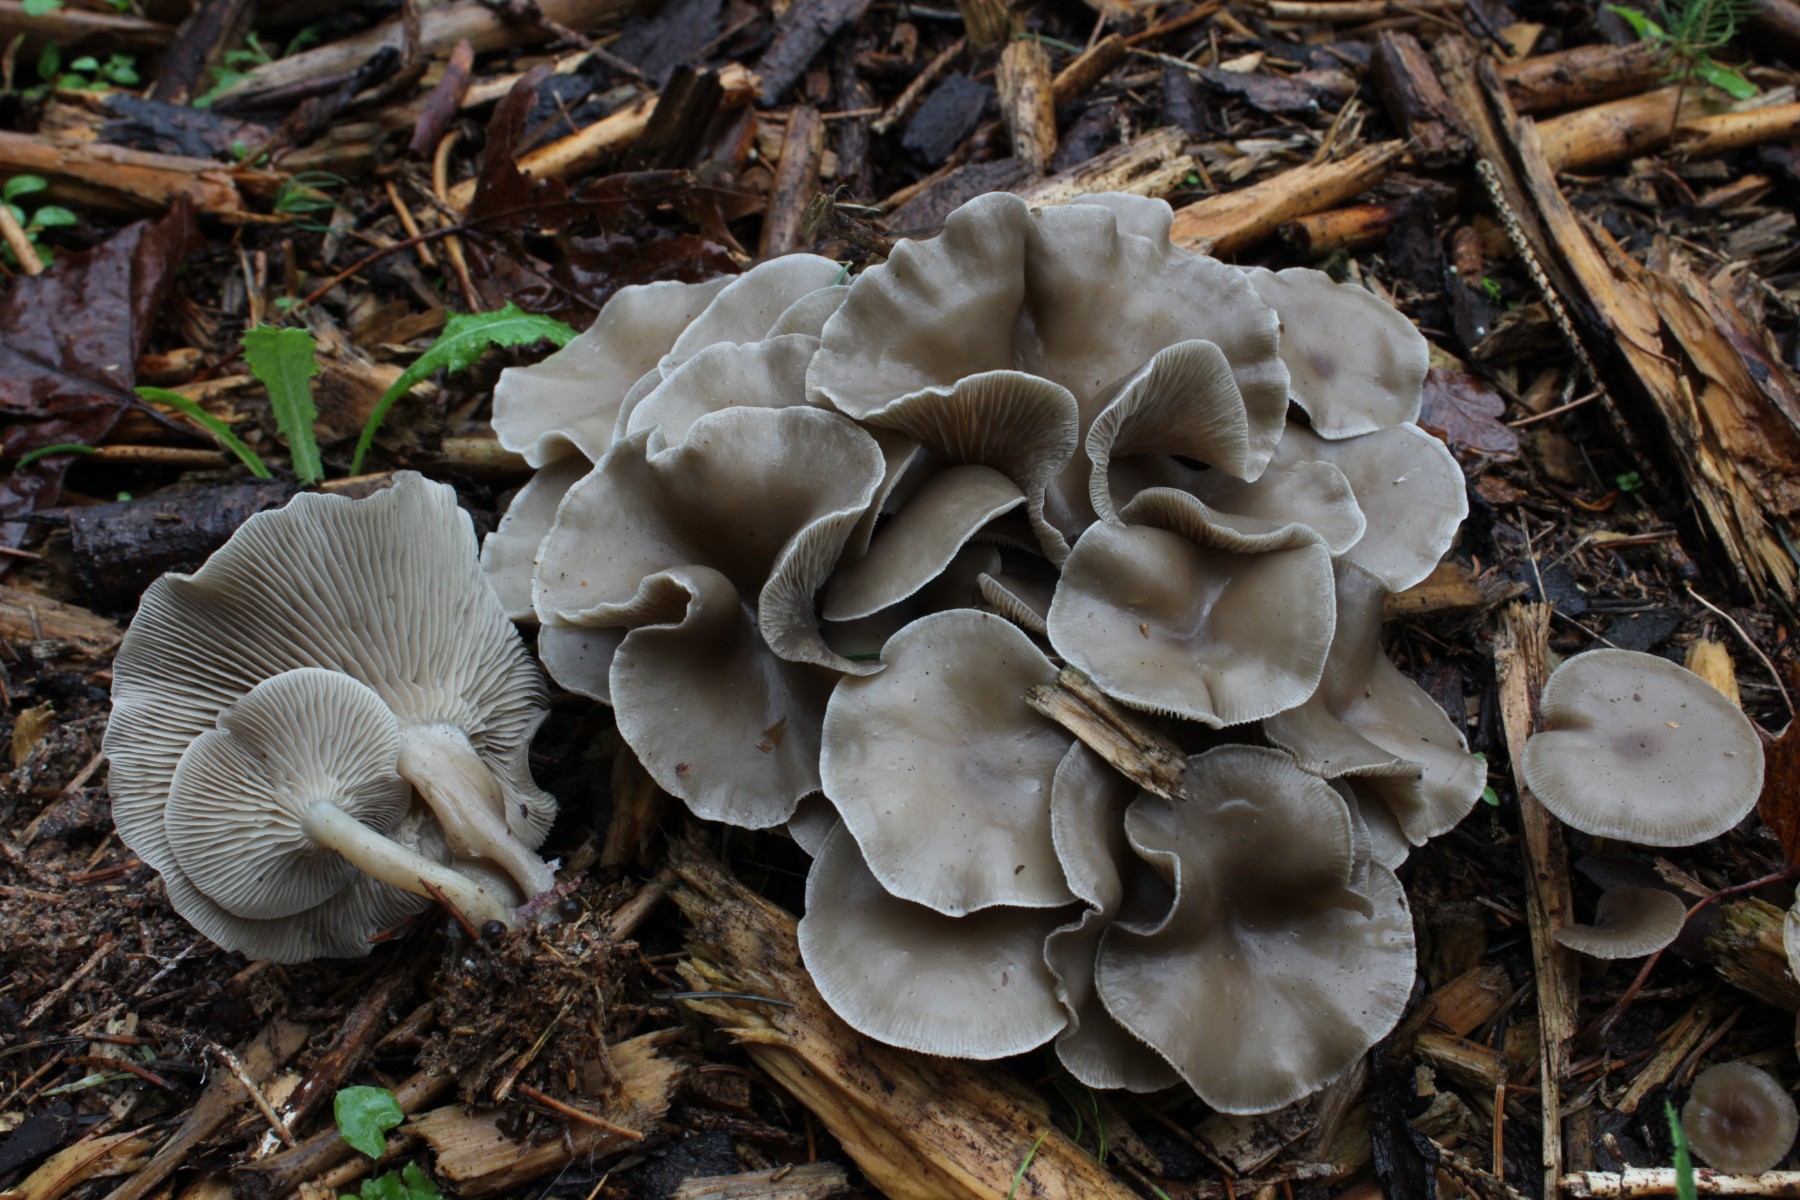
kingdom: Fungi
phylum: Basidiomycota
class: Agaricomycetes
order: Agaricales
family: Tricholomataceae
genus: Clitocybe
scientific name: Clitocybe metachroa
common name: grå tragthat
